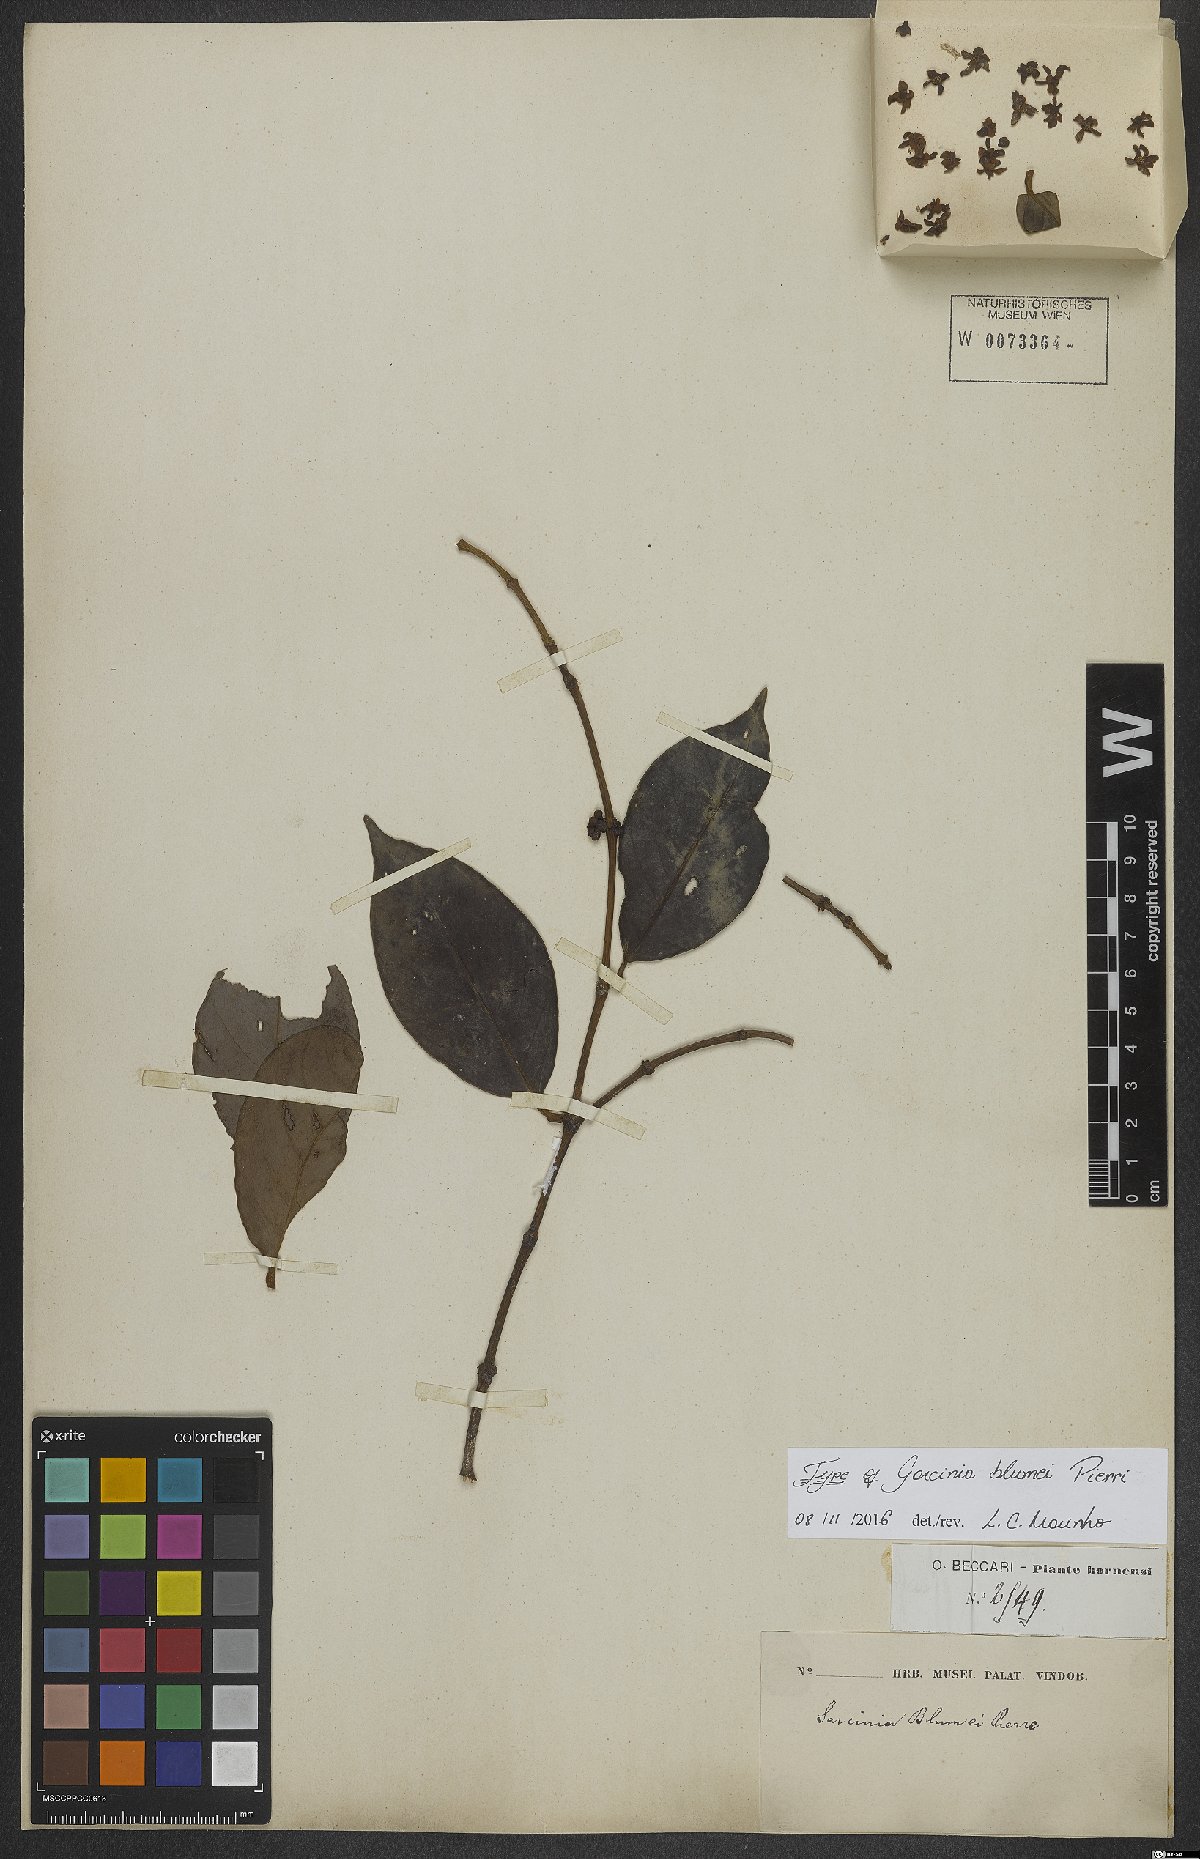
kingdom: Plantae
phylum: Tracheophyta
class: Magnoliopsida
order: Malpighiales
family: Clusiaceae
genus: Garcinia
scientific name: Garcinia blumei
